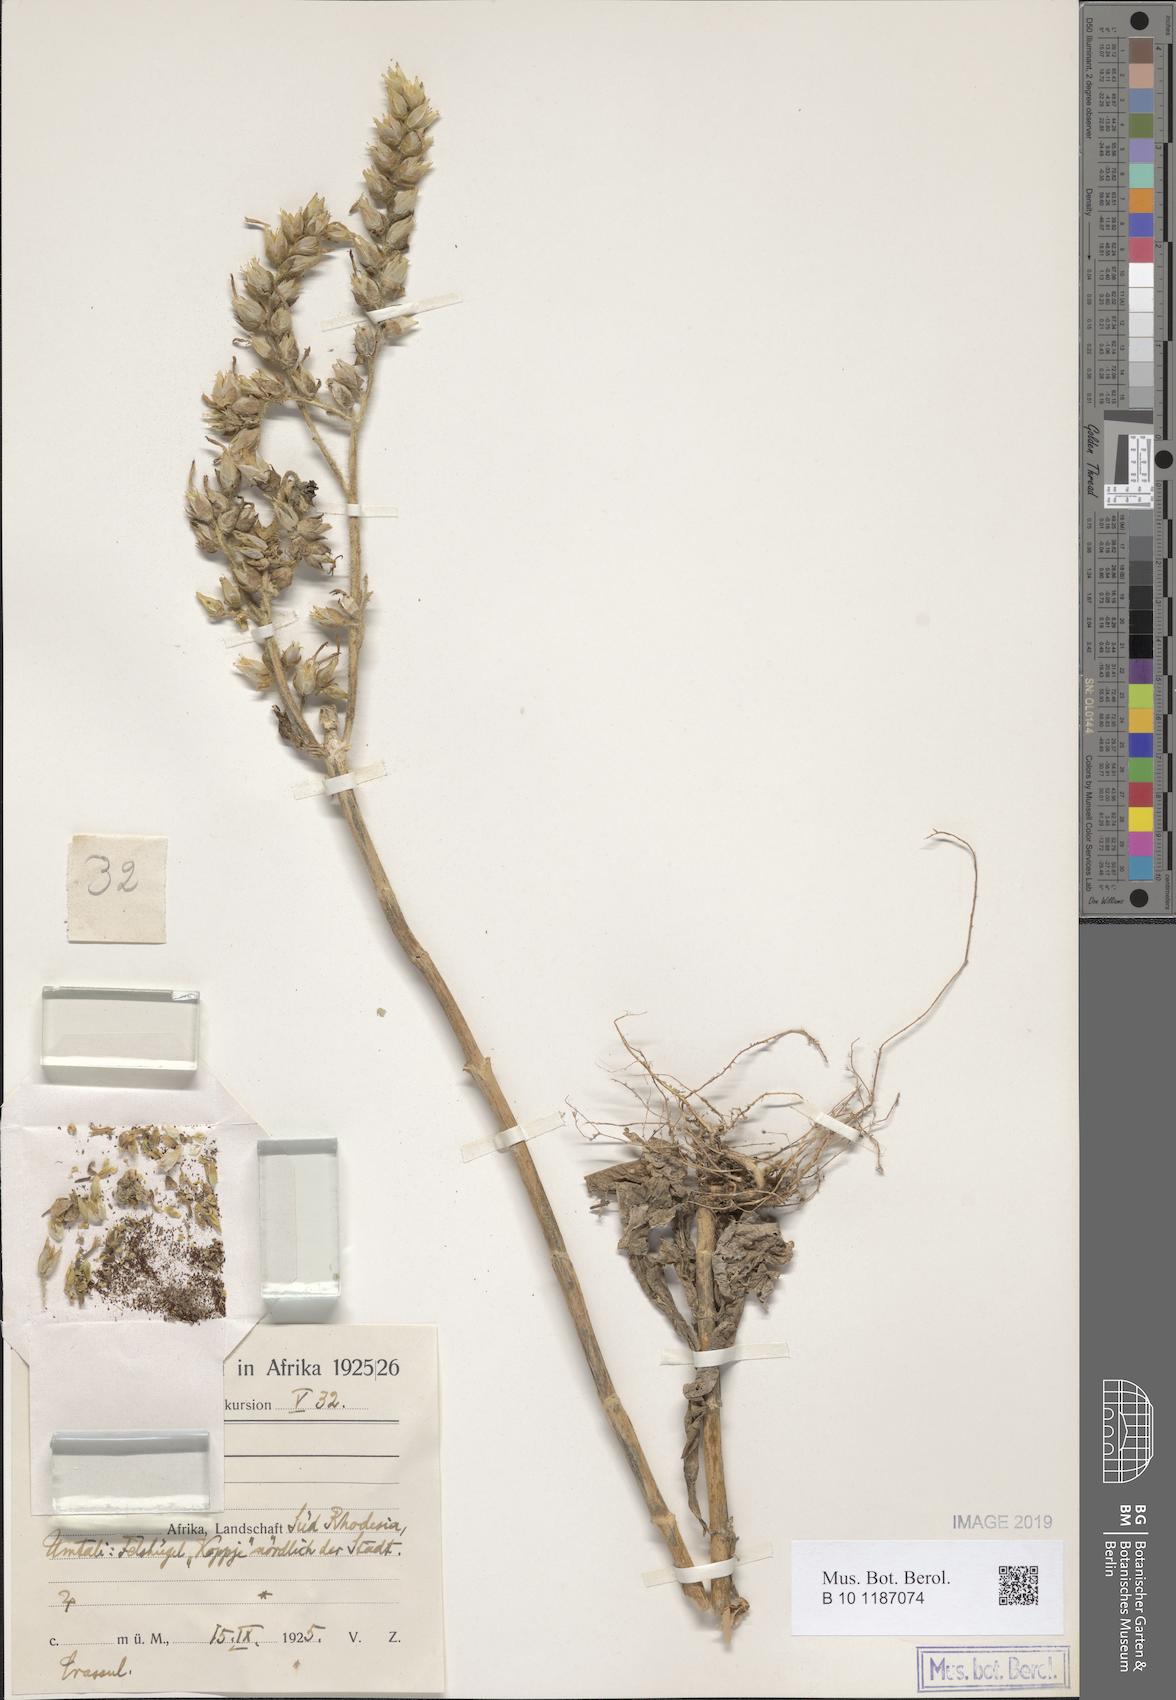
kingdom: Plantae
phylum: Tracheophyta
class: Magnoliopsida
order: Saxifragales
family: Crassulaceae
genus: Kalanchoe
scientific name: Kalanchoe
